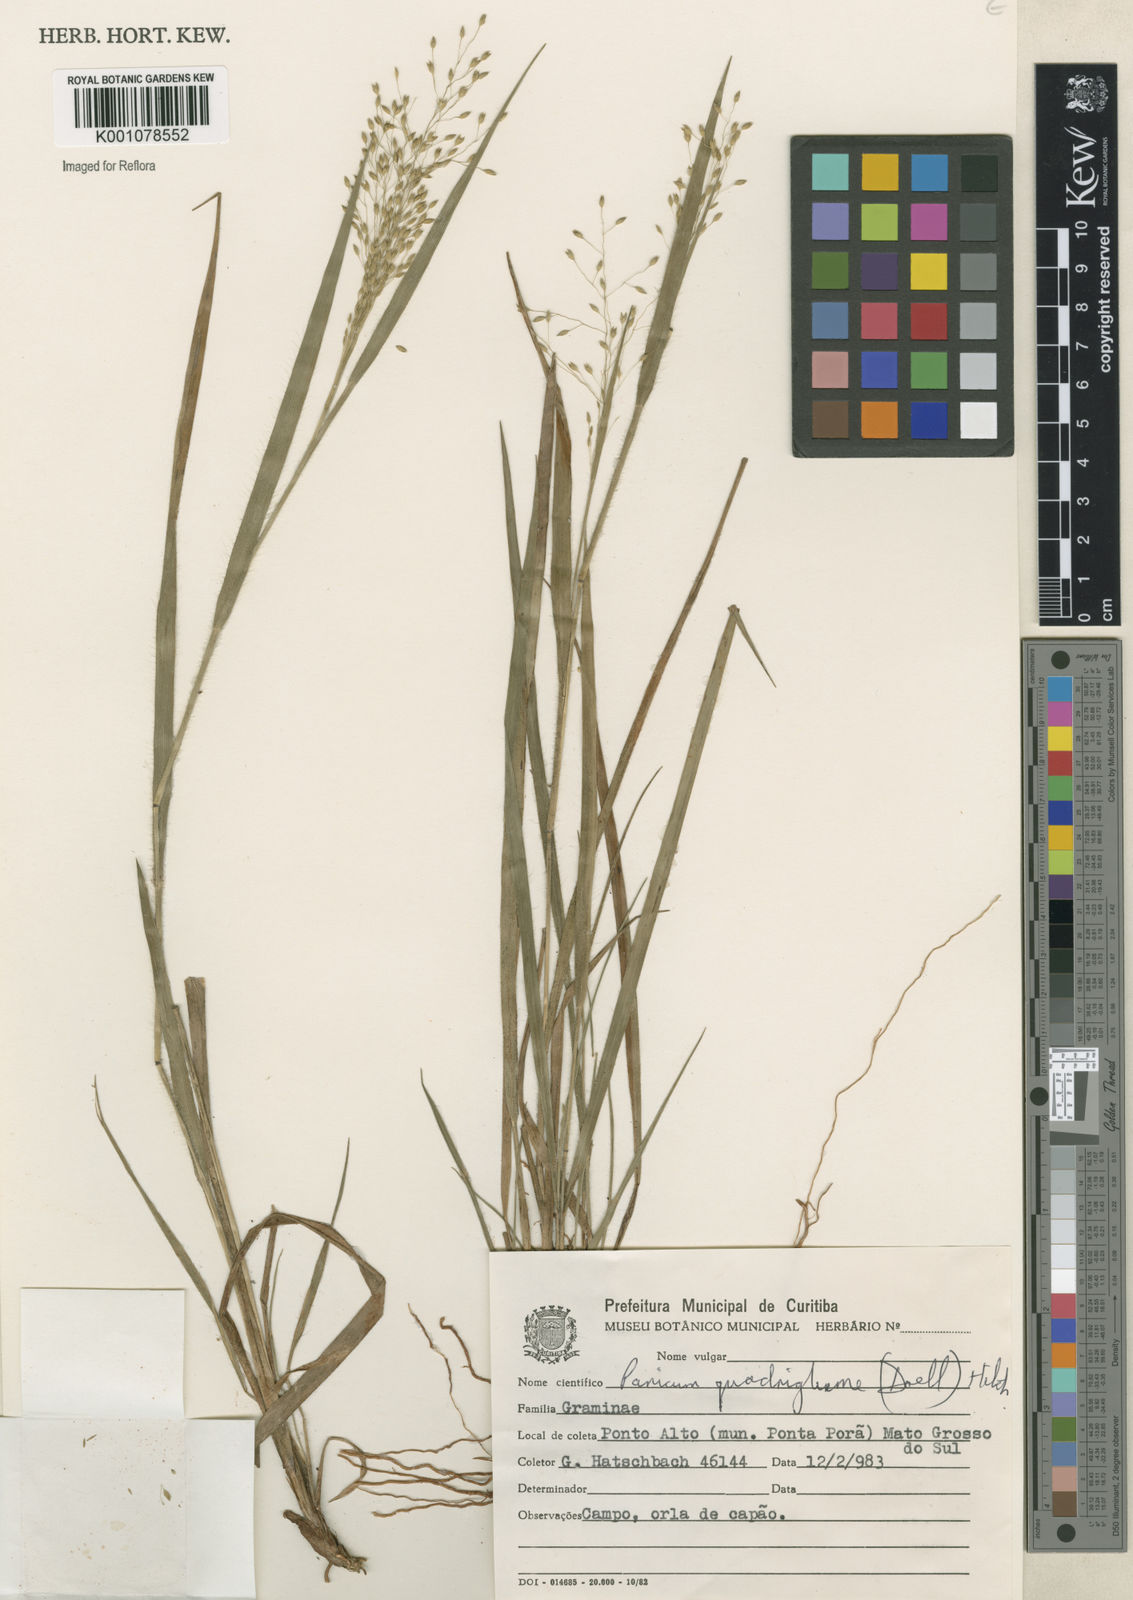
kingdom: Plantae
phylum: Tracheophyta
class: Liliopsida
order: Poales
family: Poaceae
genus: Panicum
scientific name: Panicum
